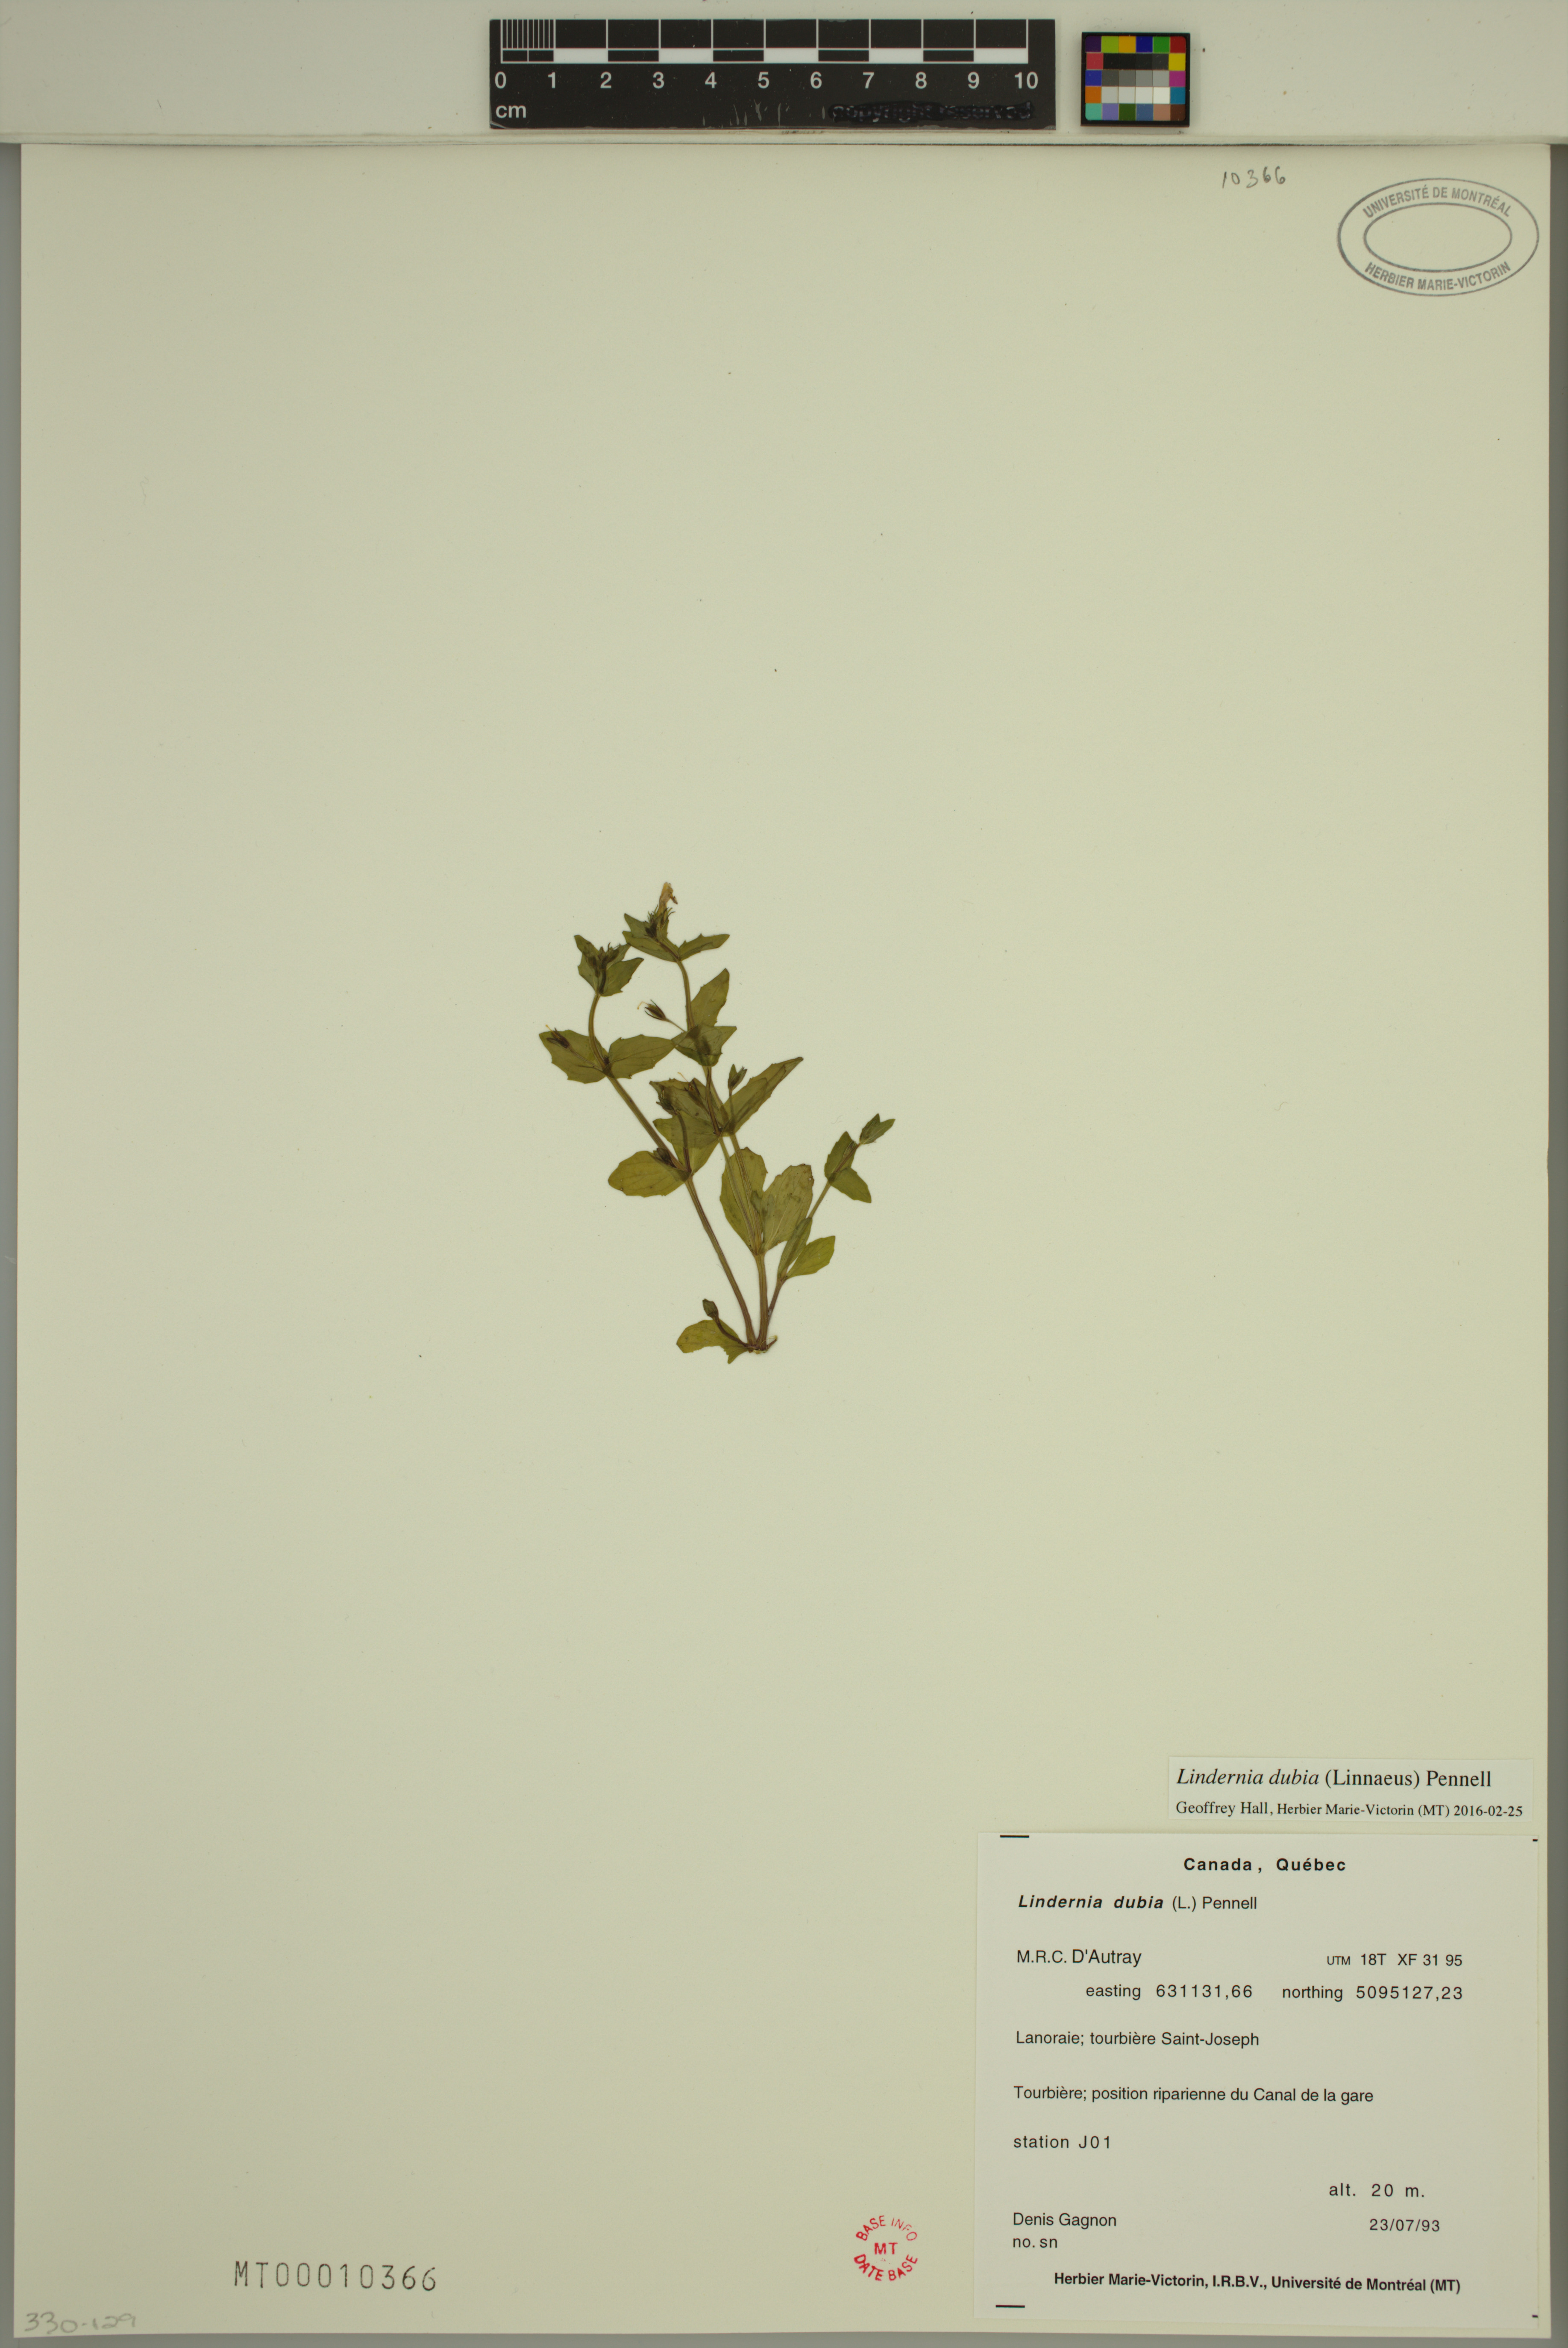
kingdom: Plantae
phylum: Tracheophyta
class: Magnoliopsida
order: Lamiales
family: Linderniaceae
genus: Lindernia
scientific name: Lindernia dubia
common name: Annual false pimpernel
